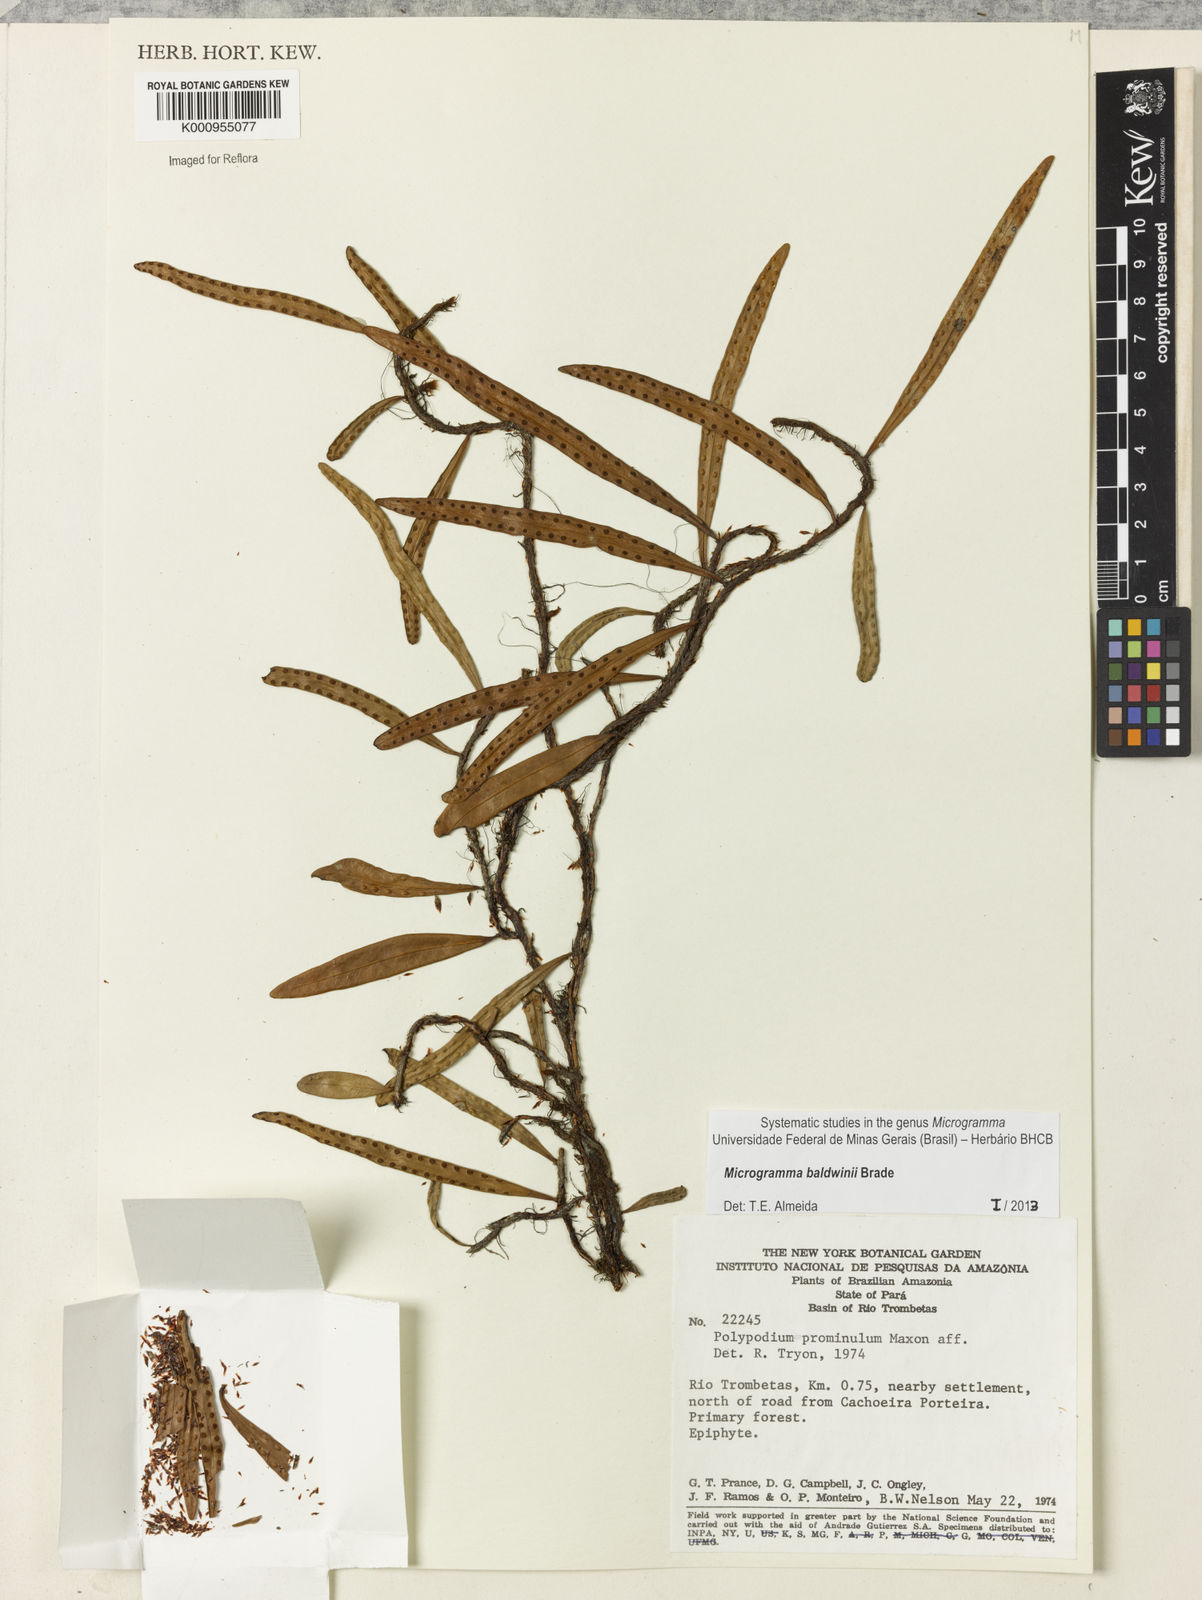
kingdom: Plantae
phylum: Tracheophyta
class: Polypodiopsida
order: Polypodiales
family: Polypodiaceae
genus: Microgramma
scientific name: Microgramma baldwinii
